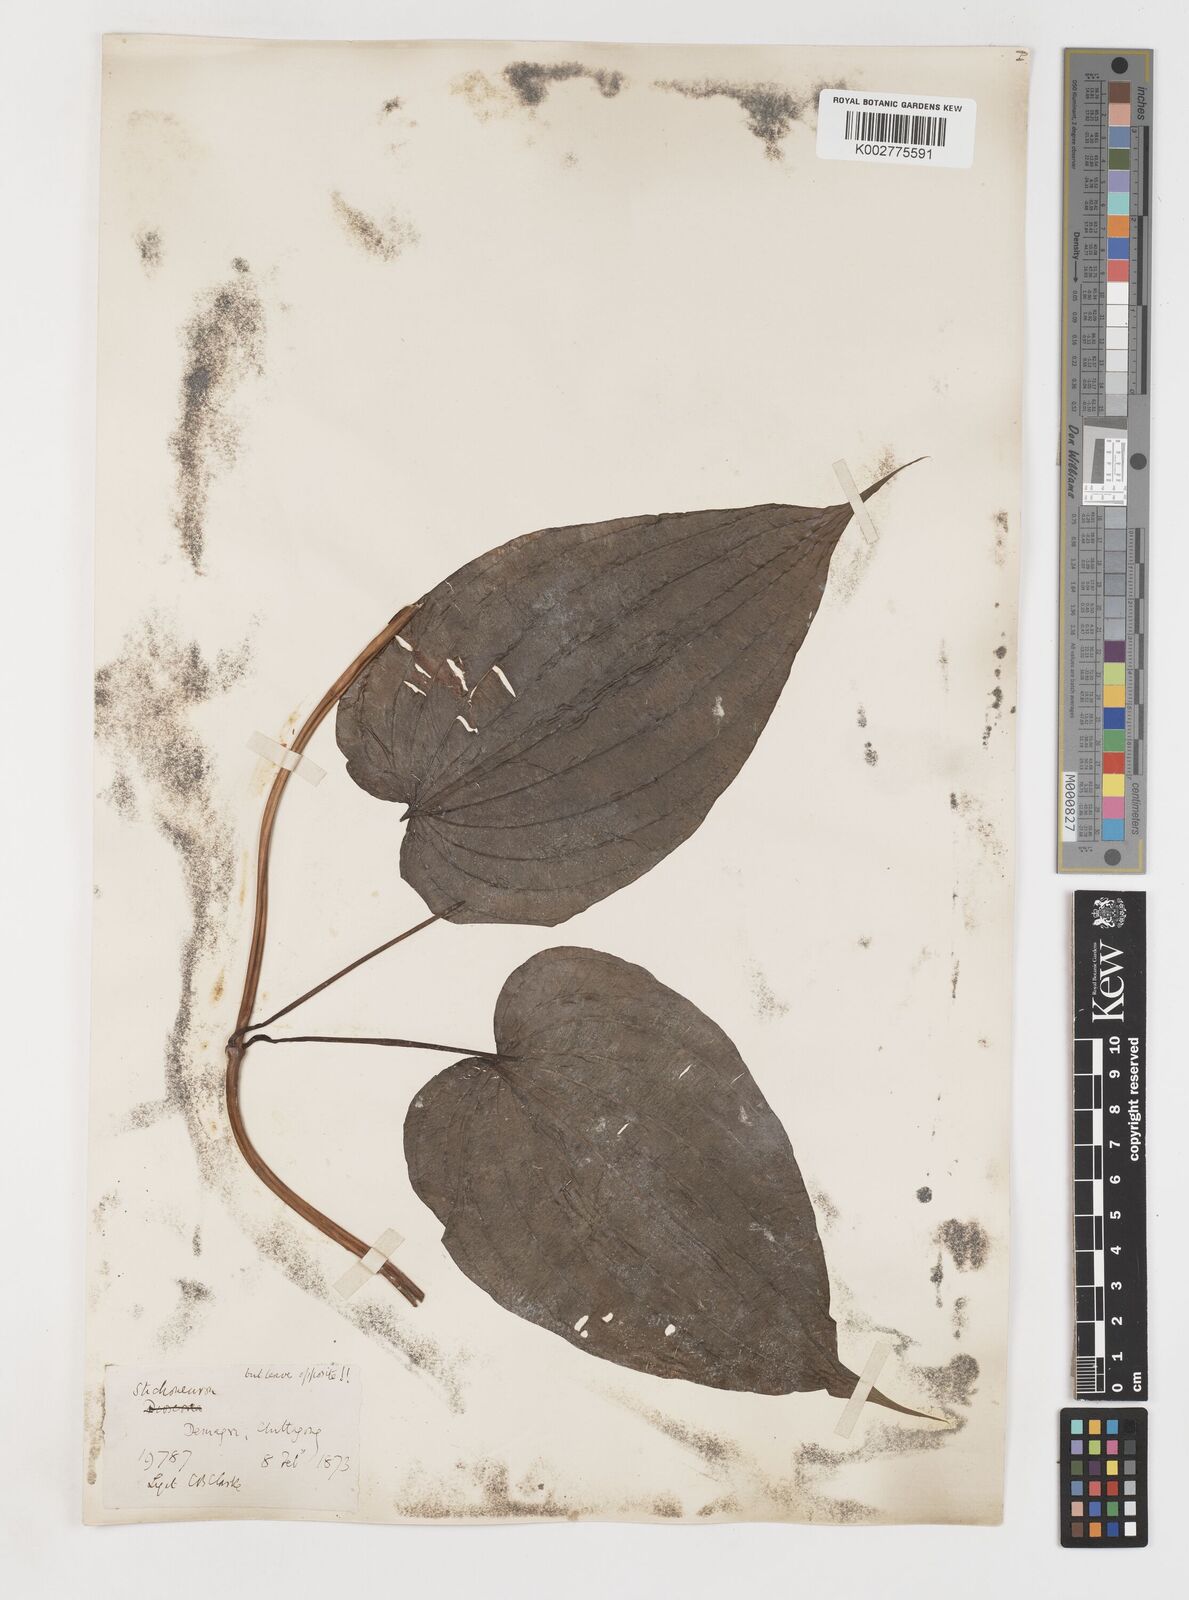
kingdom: Plantae
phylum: Tracheophyta
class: Liliopsida
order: Pandanales
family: Stemonaceae
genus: Stemona
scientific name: Stemona tuberosa
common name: Stemona
